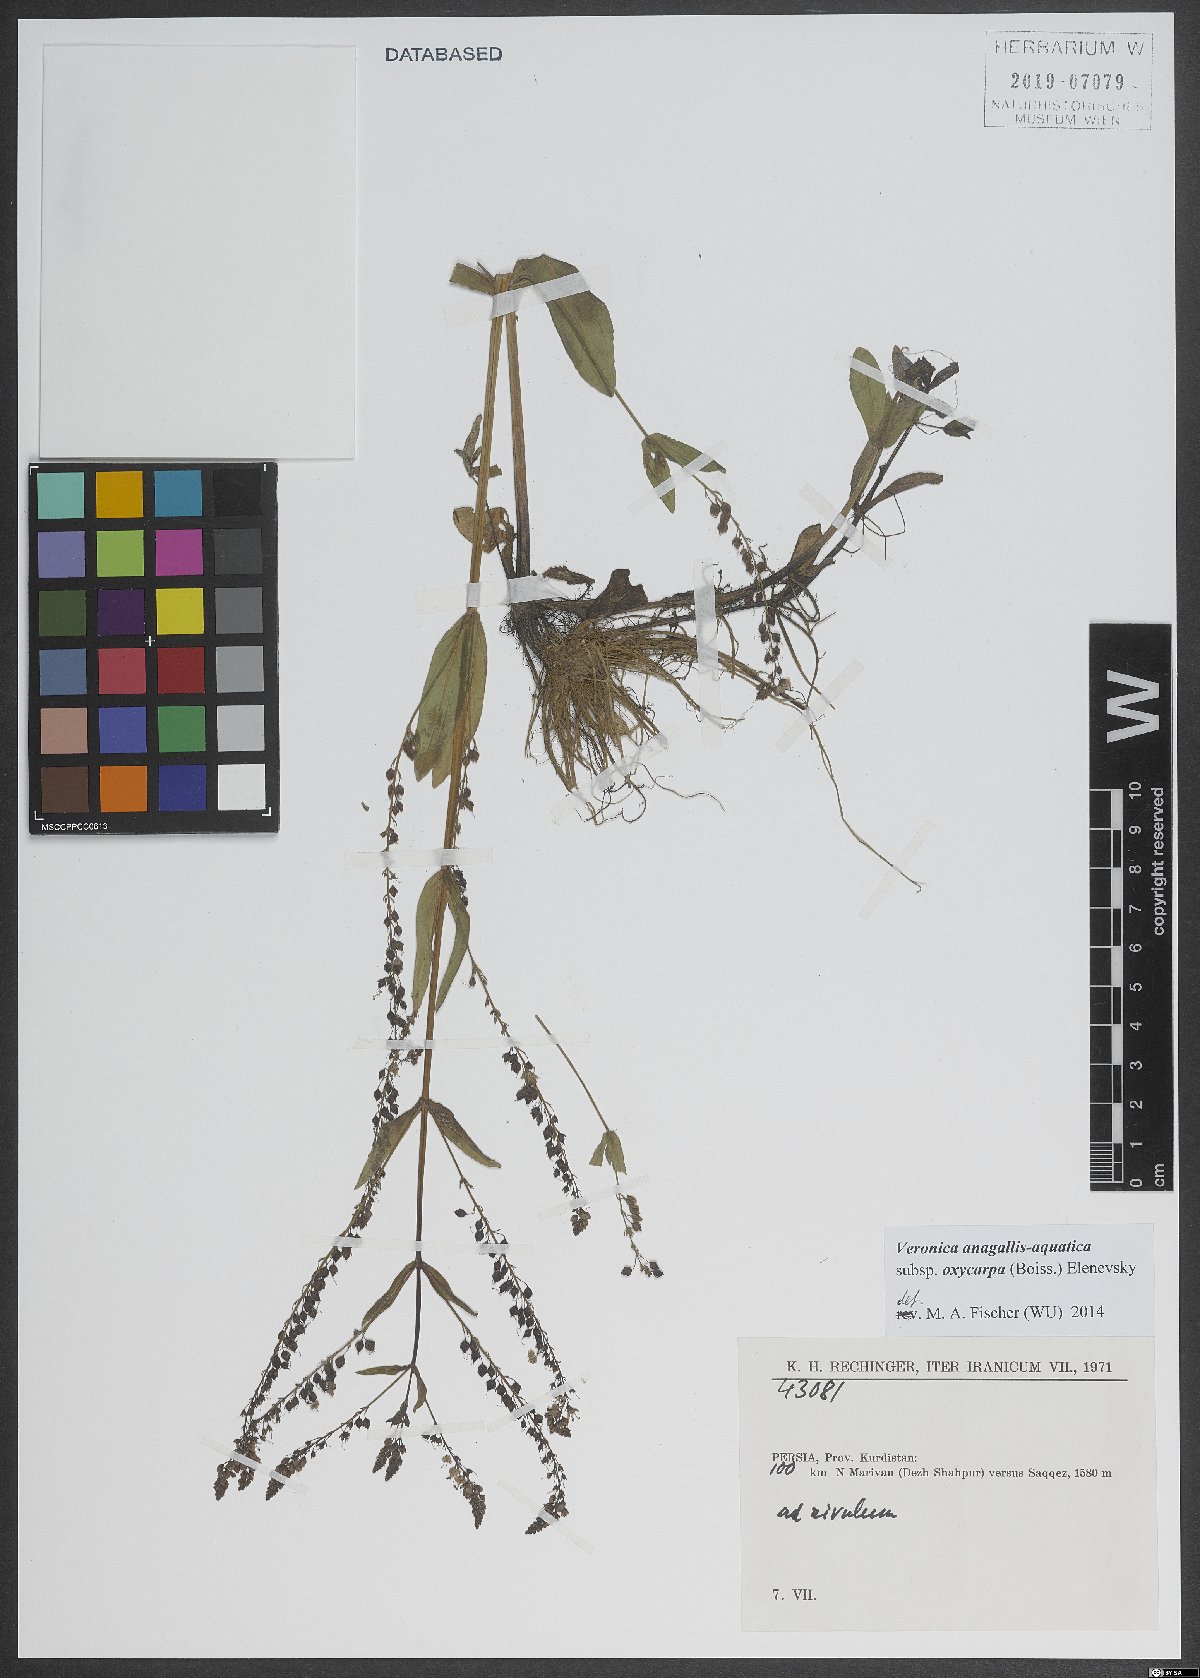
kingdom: Plantae
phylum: Tracheophyta
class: Magnoliopsida
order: Lamiales
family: Plantaginaceae
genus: Veronica
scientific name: Veronica oxycarpa
